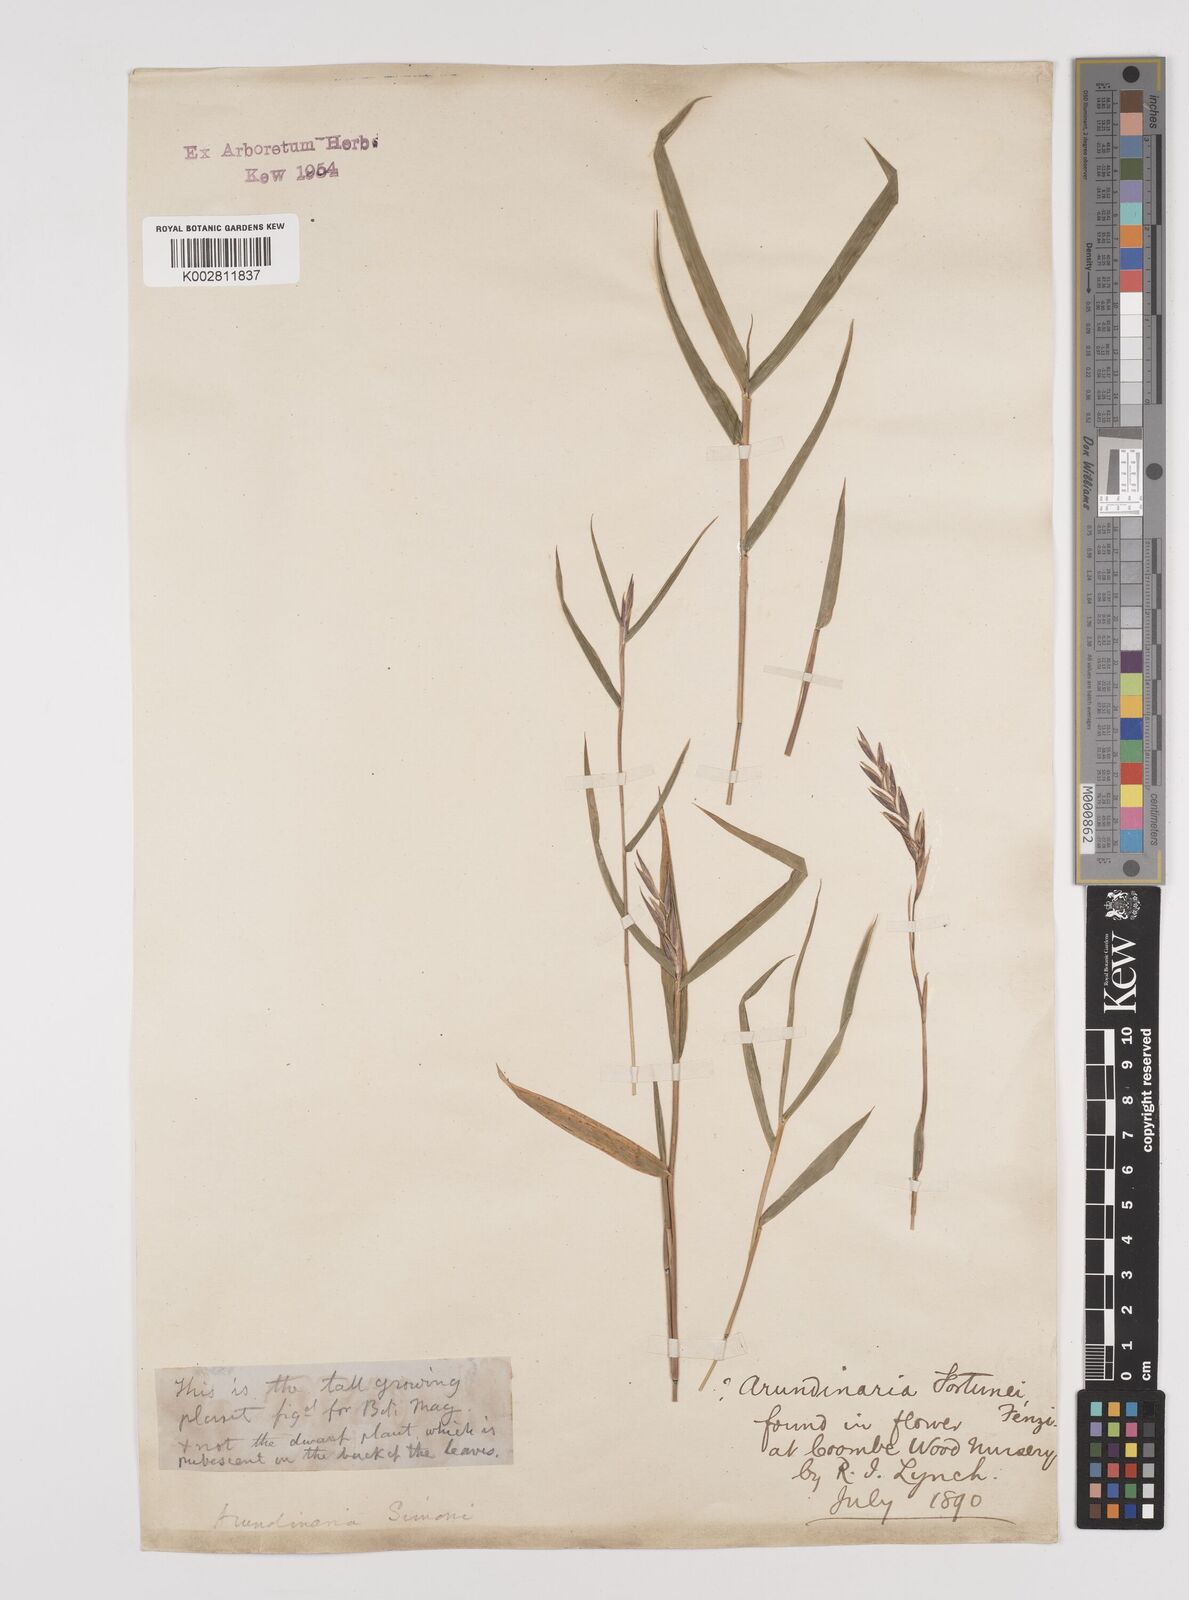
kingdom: Plantae
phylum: Tracheophyta
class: Liliopsida
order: Poales
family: Poaceae
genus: Pleioblastus
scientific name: Pleioblastus simonii
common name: Simon bamboo
